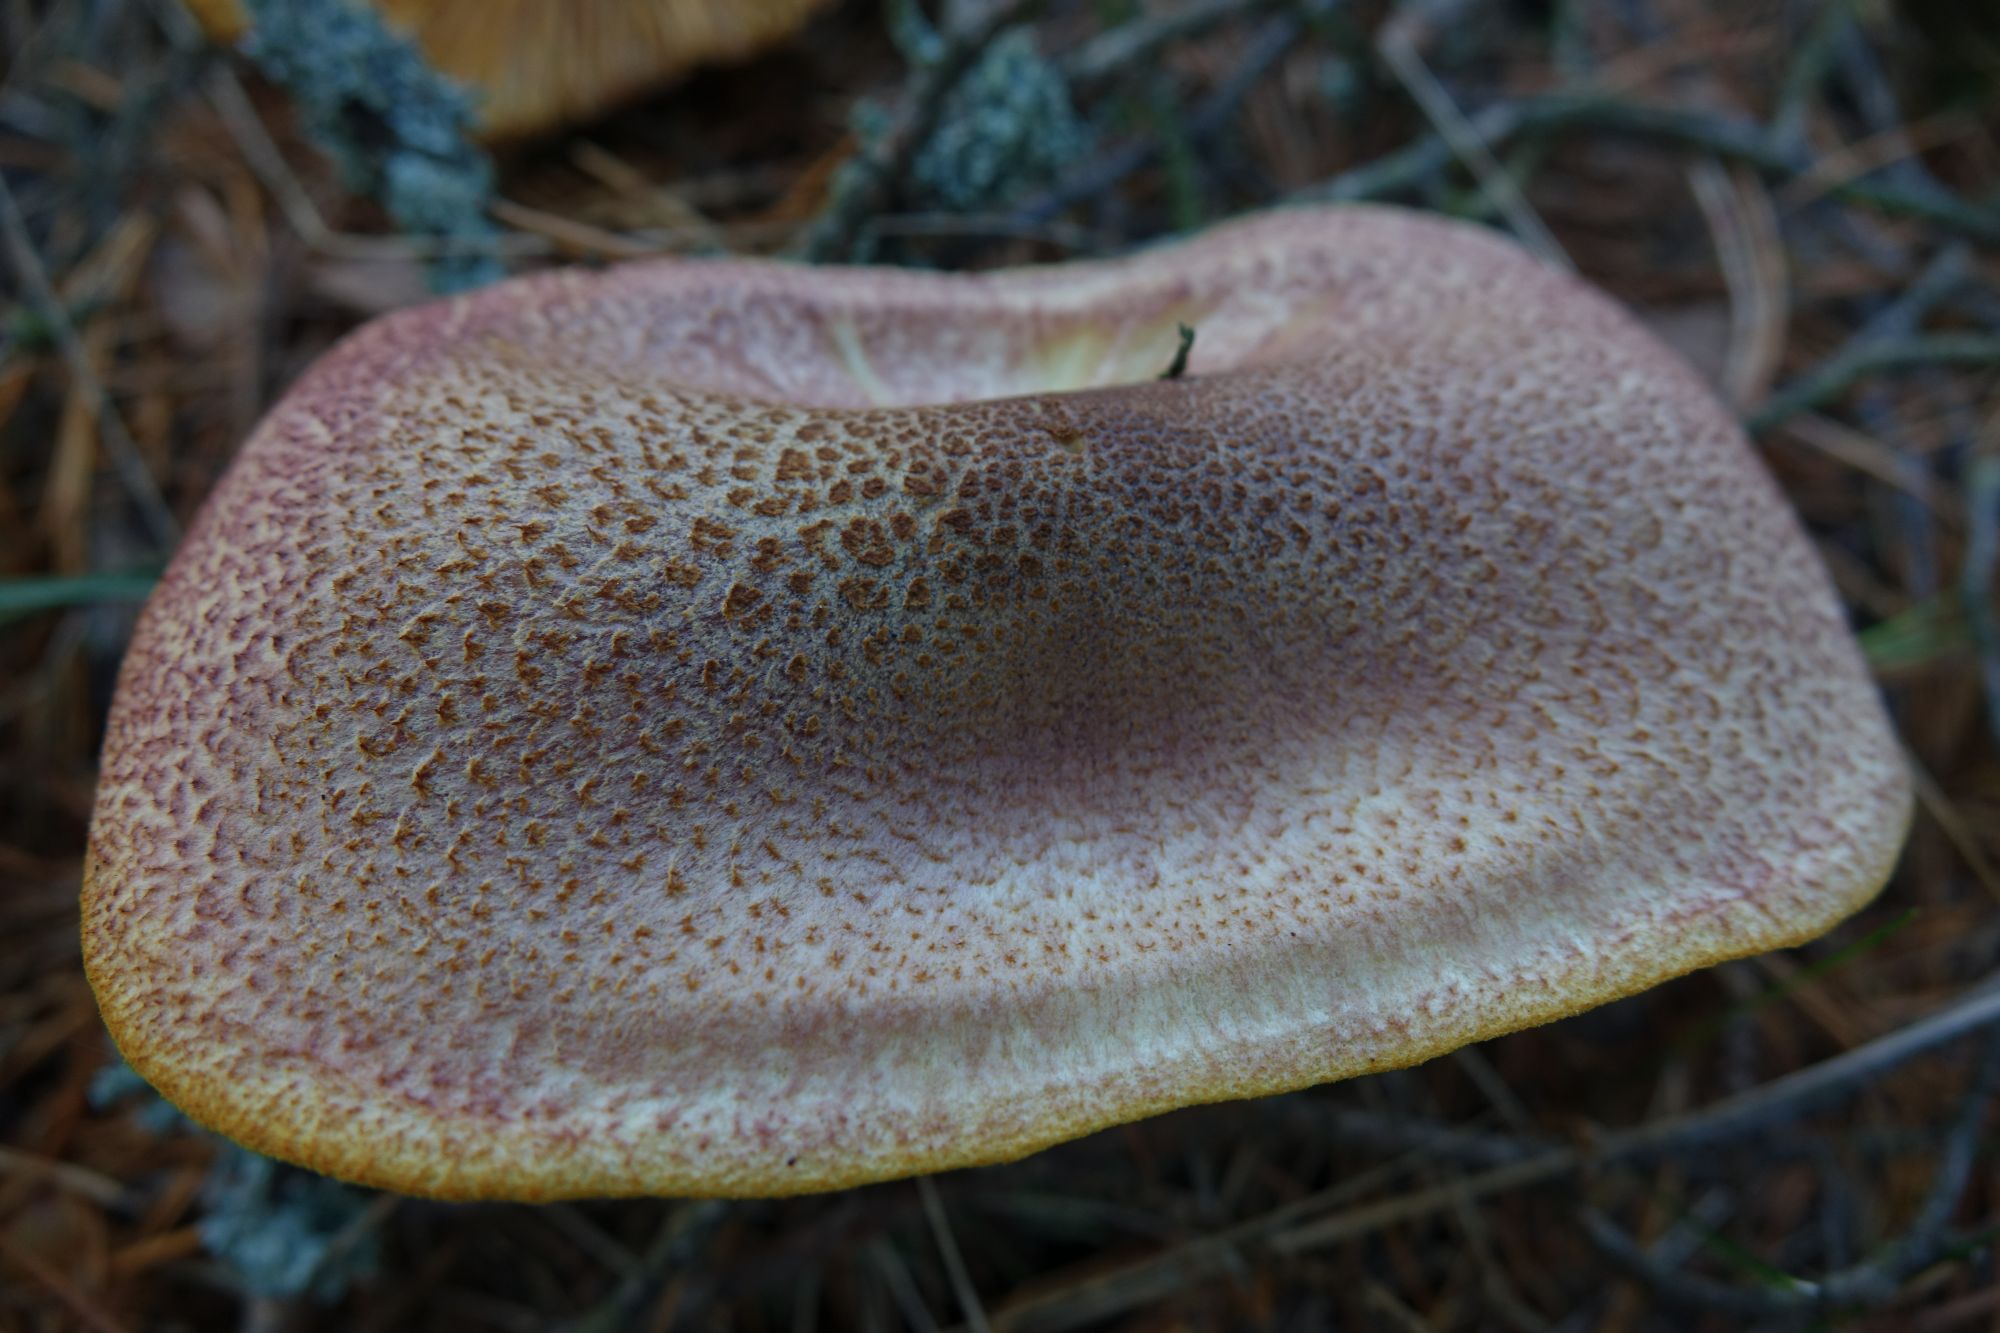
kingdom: Fungi
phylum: Basidiomycota
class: Agaricomycetes
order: Agaricales
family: Tricholomataceae
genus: Tricholomopsis
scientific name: Tricholomopsis rutilans
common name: Plums and custard
